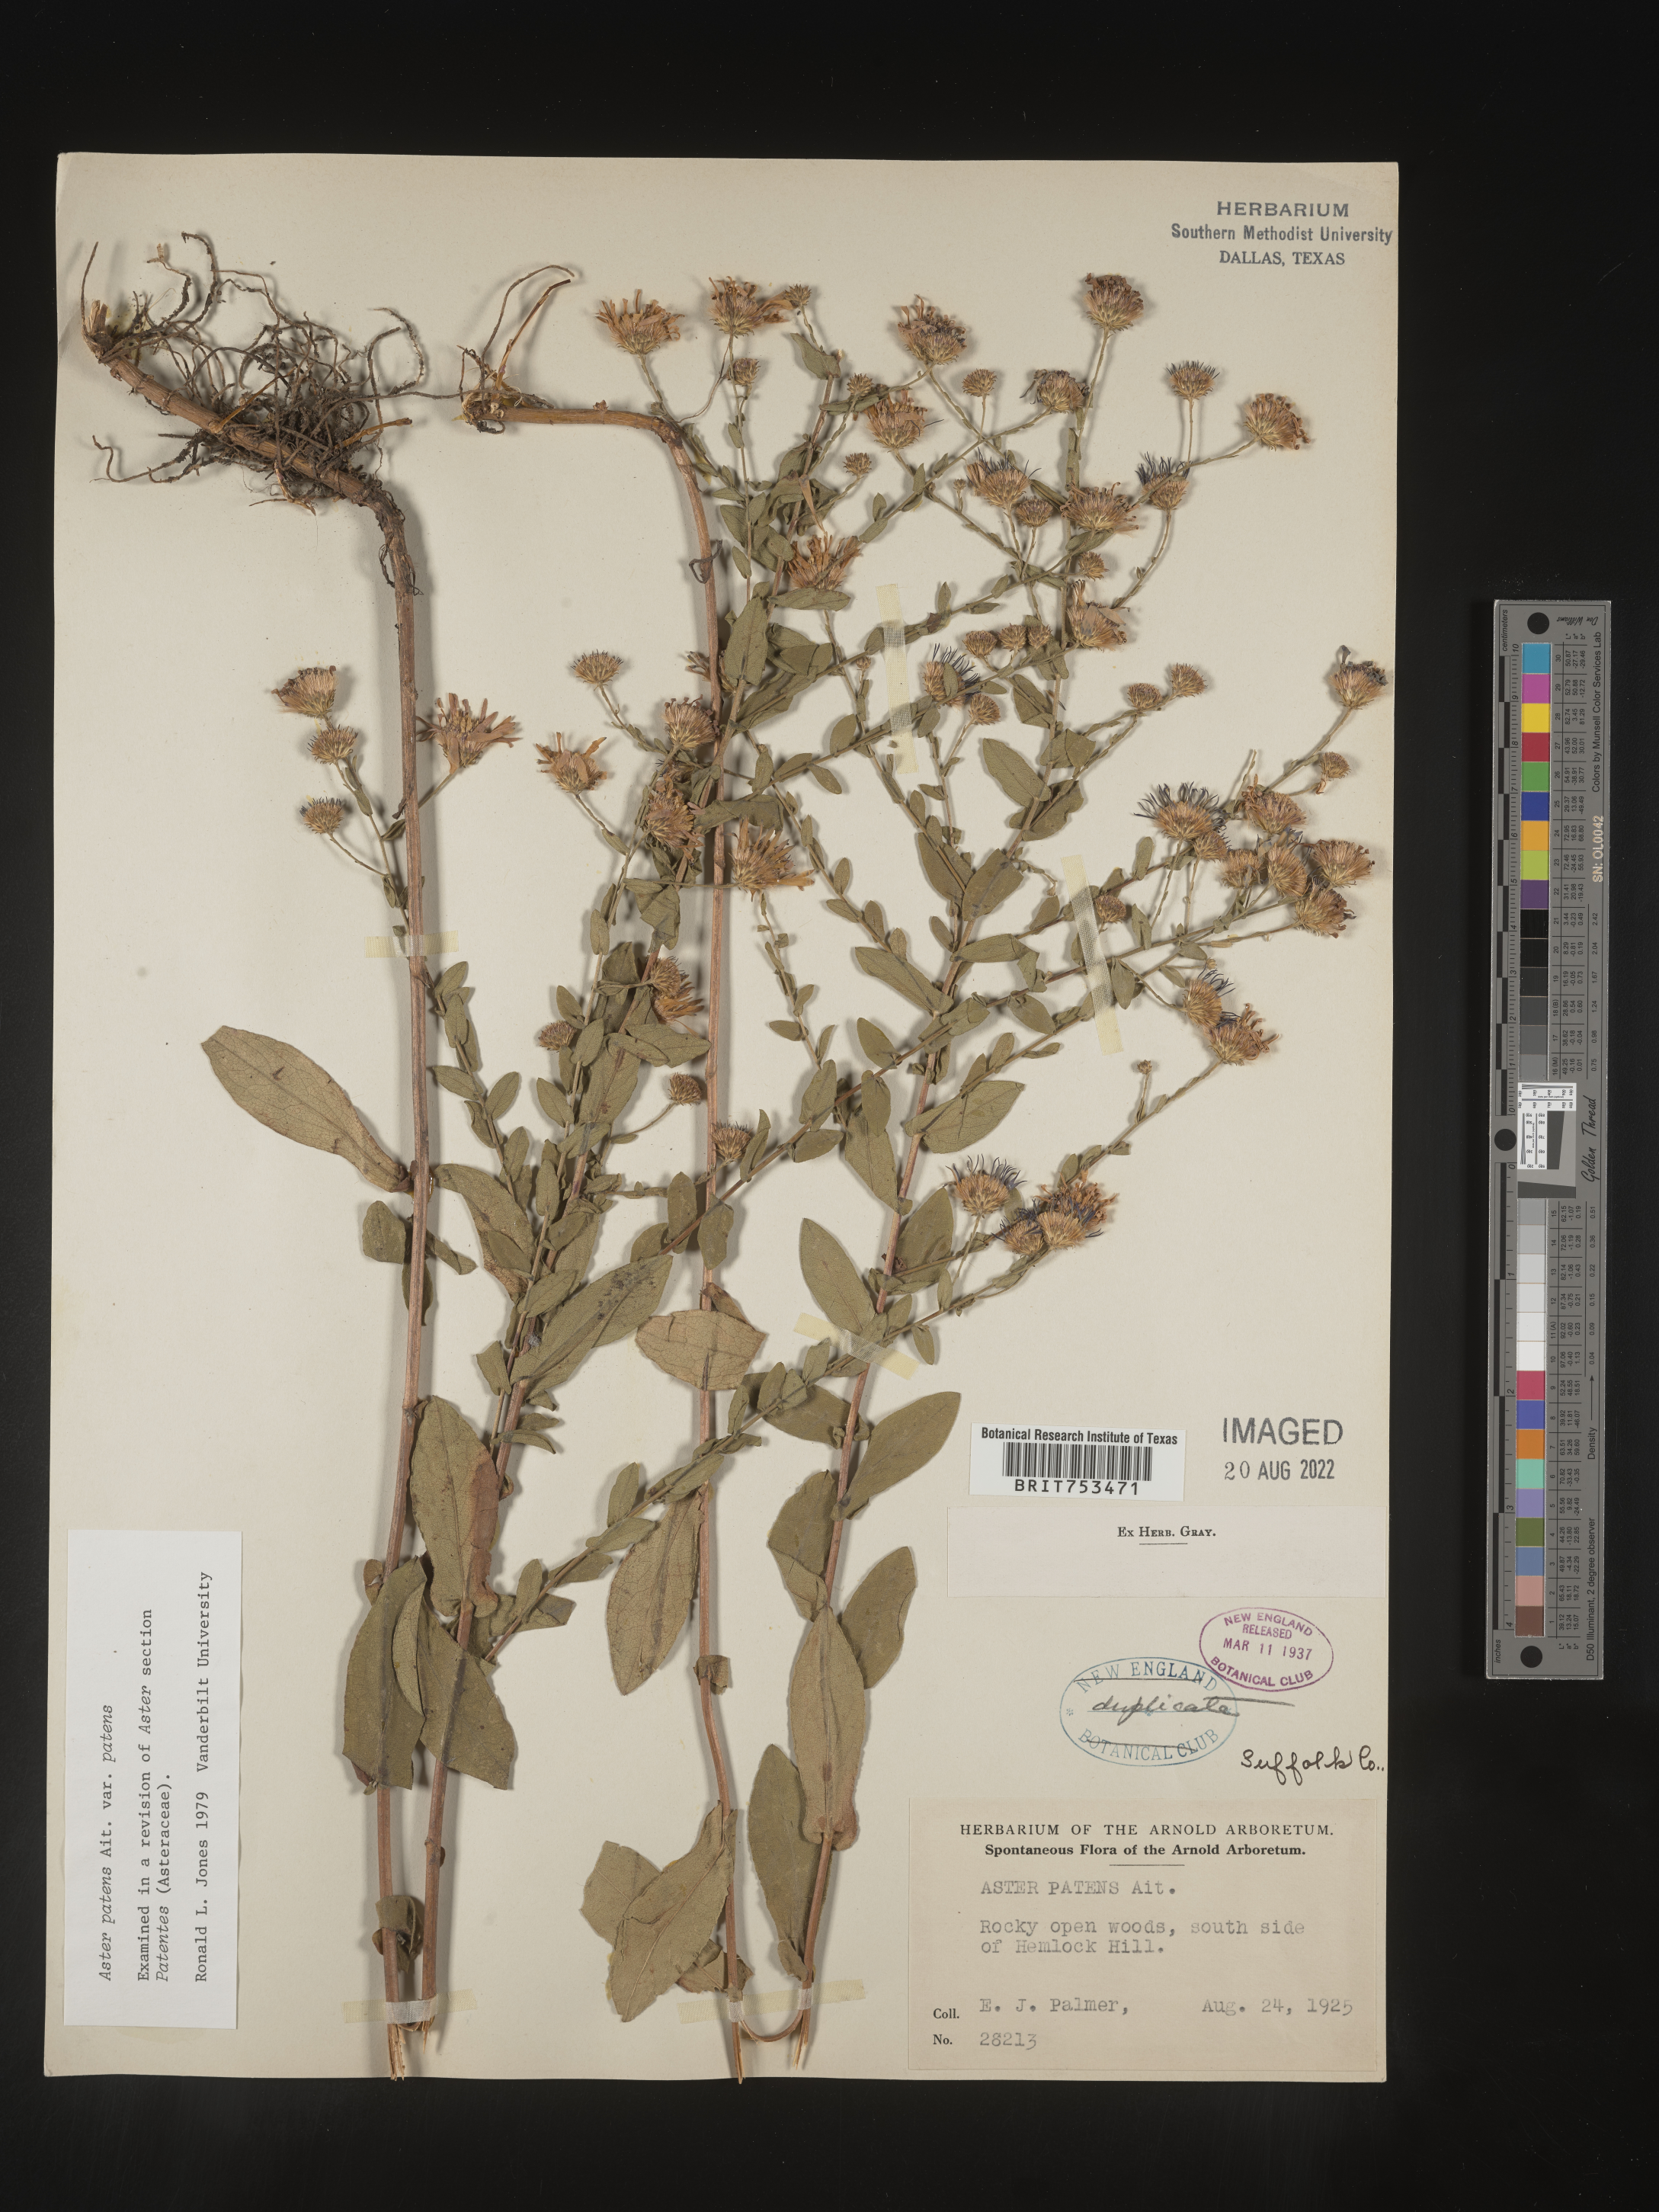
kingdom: Plantae
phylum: Tracheophyta
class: Magnoliopsida
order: Asterales
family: Asteraceae
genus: Symphyotrichum
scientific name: Symphyotrichum patens
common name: Late purple aster
